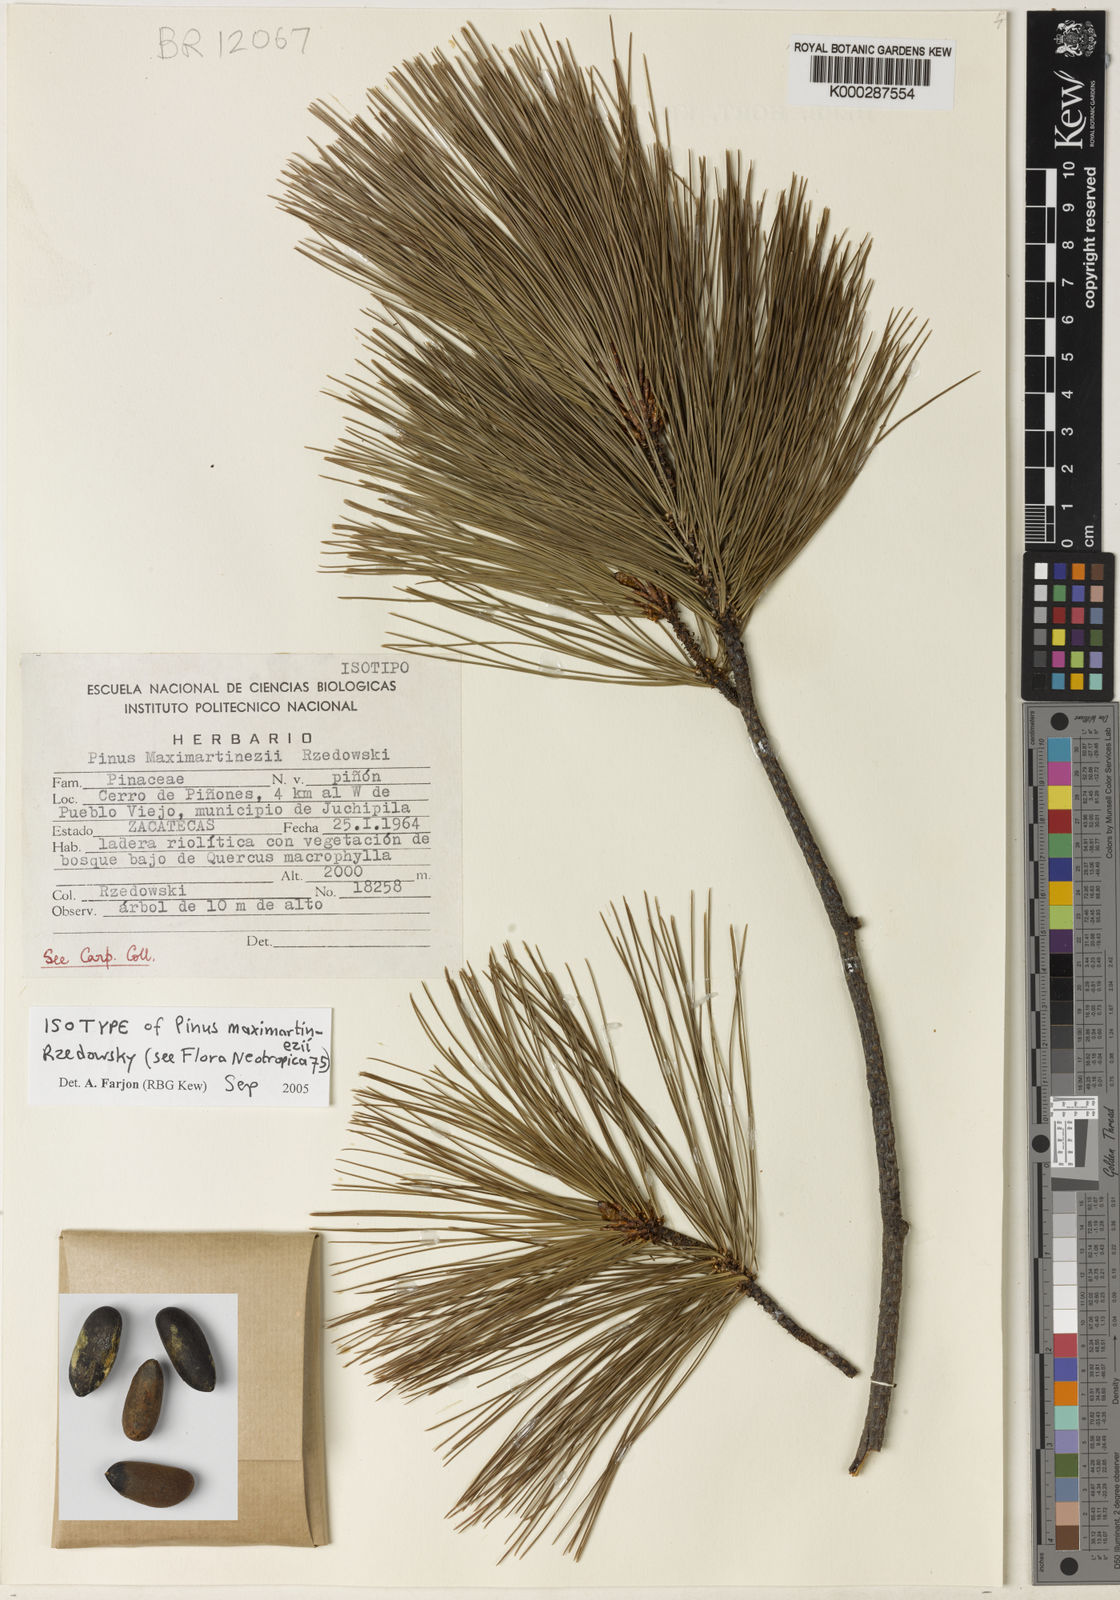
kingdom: Plantae
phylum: Tracheophyta
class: Pinopsida
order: Pinales
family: Pinaceae
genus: Pinus
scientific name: Pinus maximartinezii
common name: Big-cone pinyon
